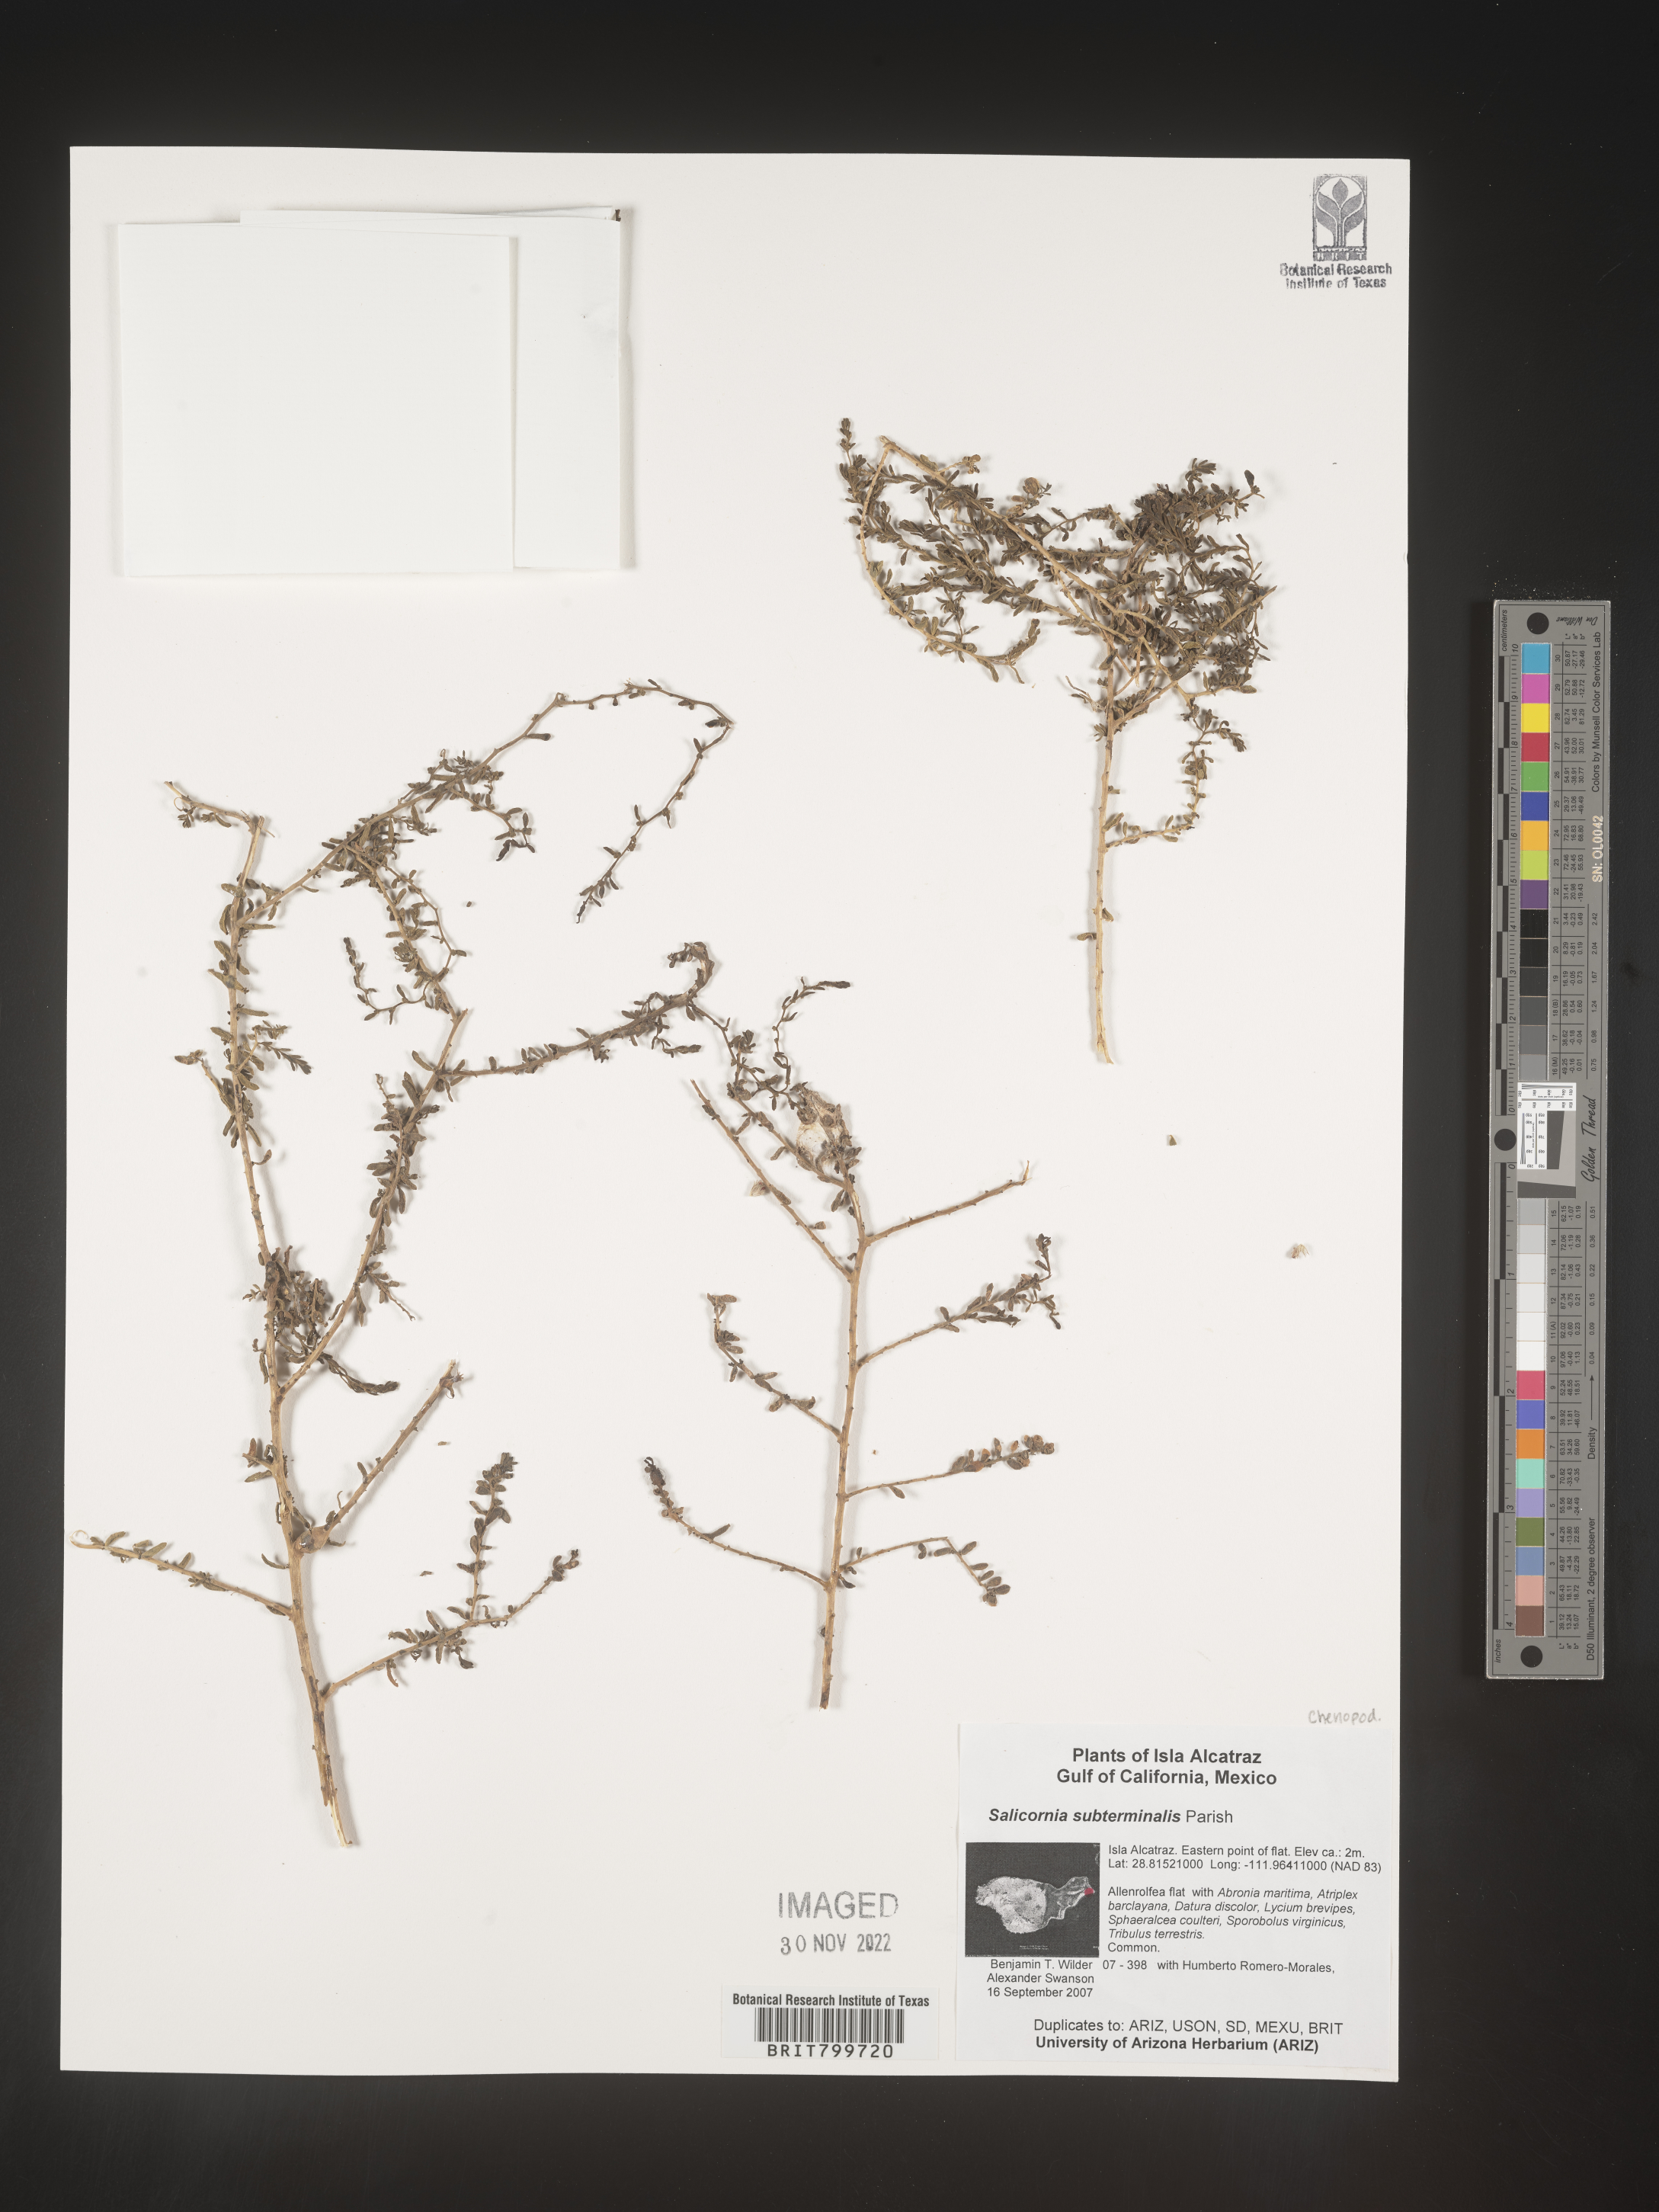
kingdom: Plantae
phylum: Tracheophyta
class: Magnoliopsida
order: Caryophyllales
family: Amaranthaceae
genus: Salicornia
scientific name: Salicornia
